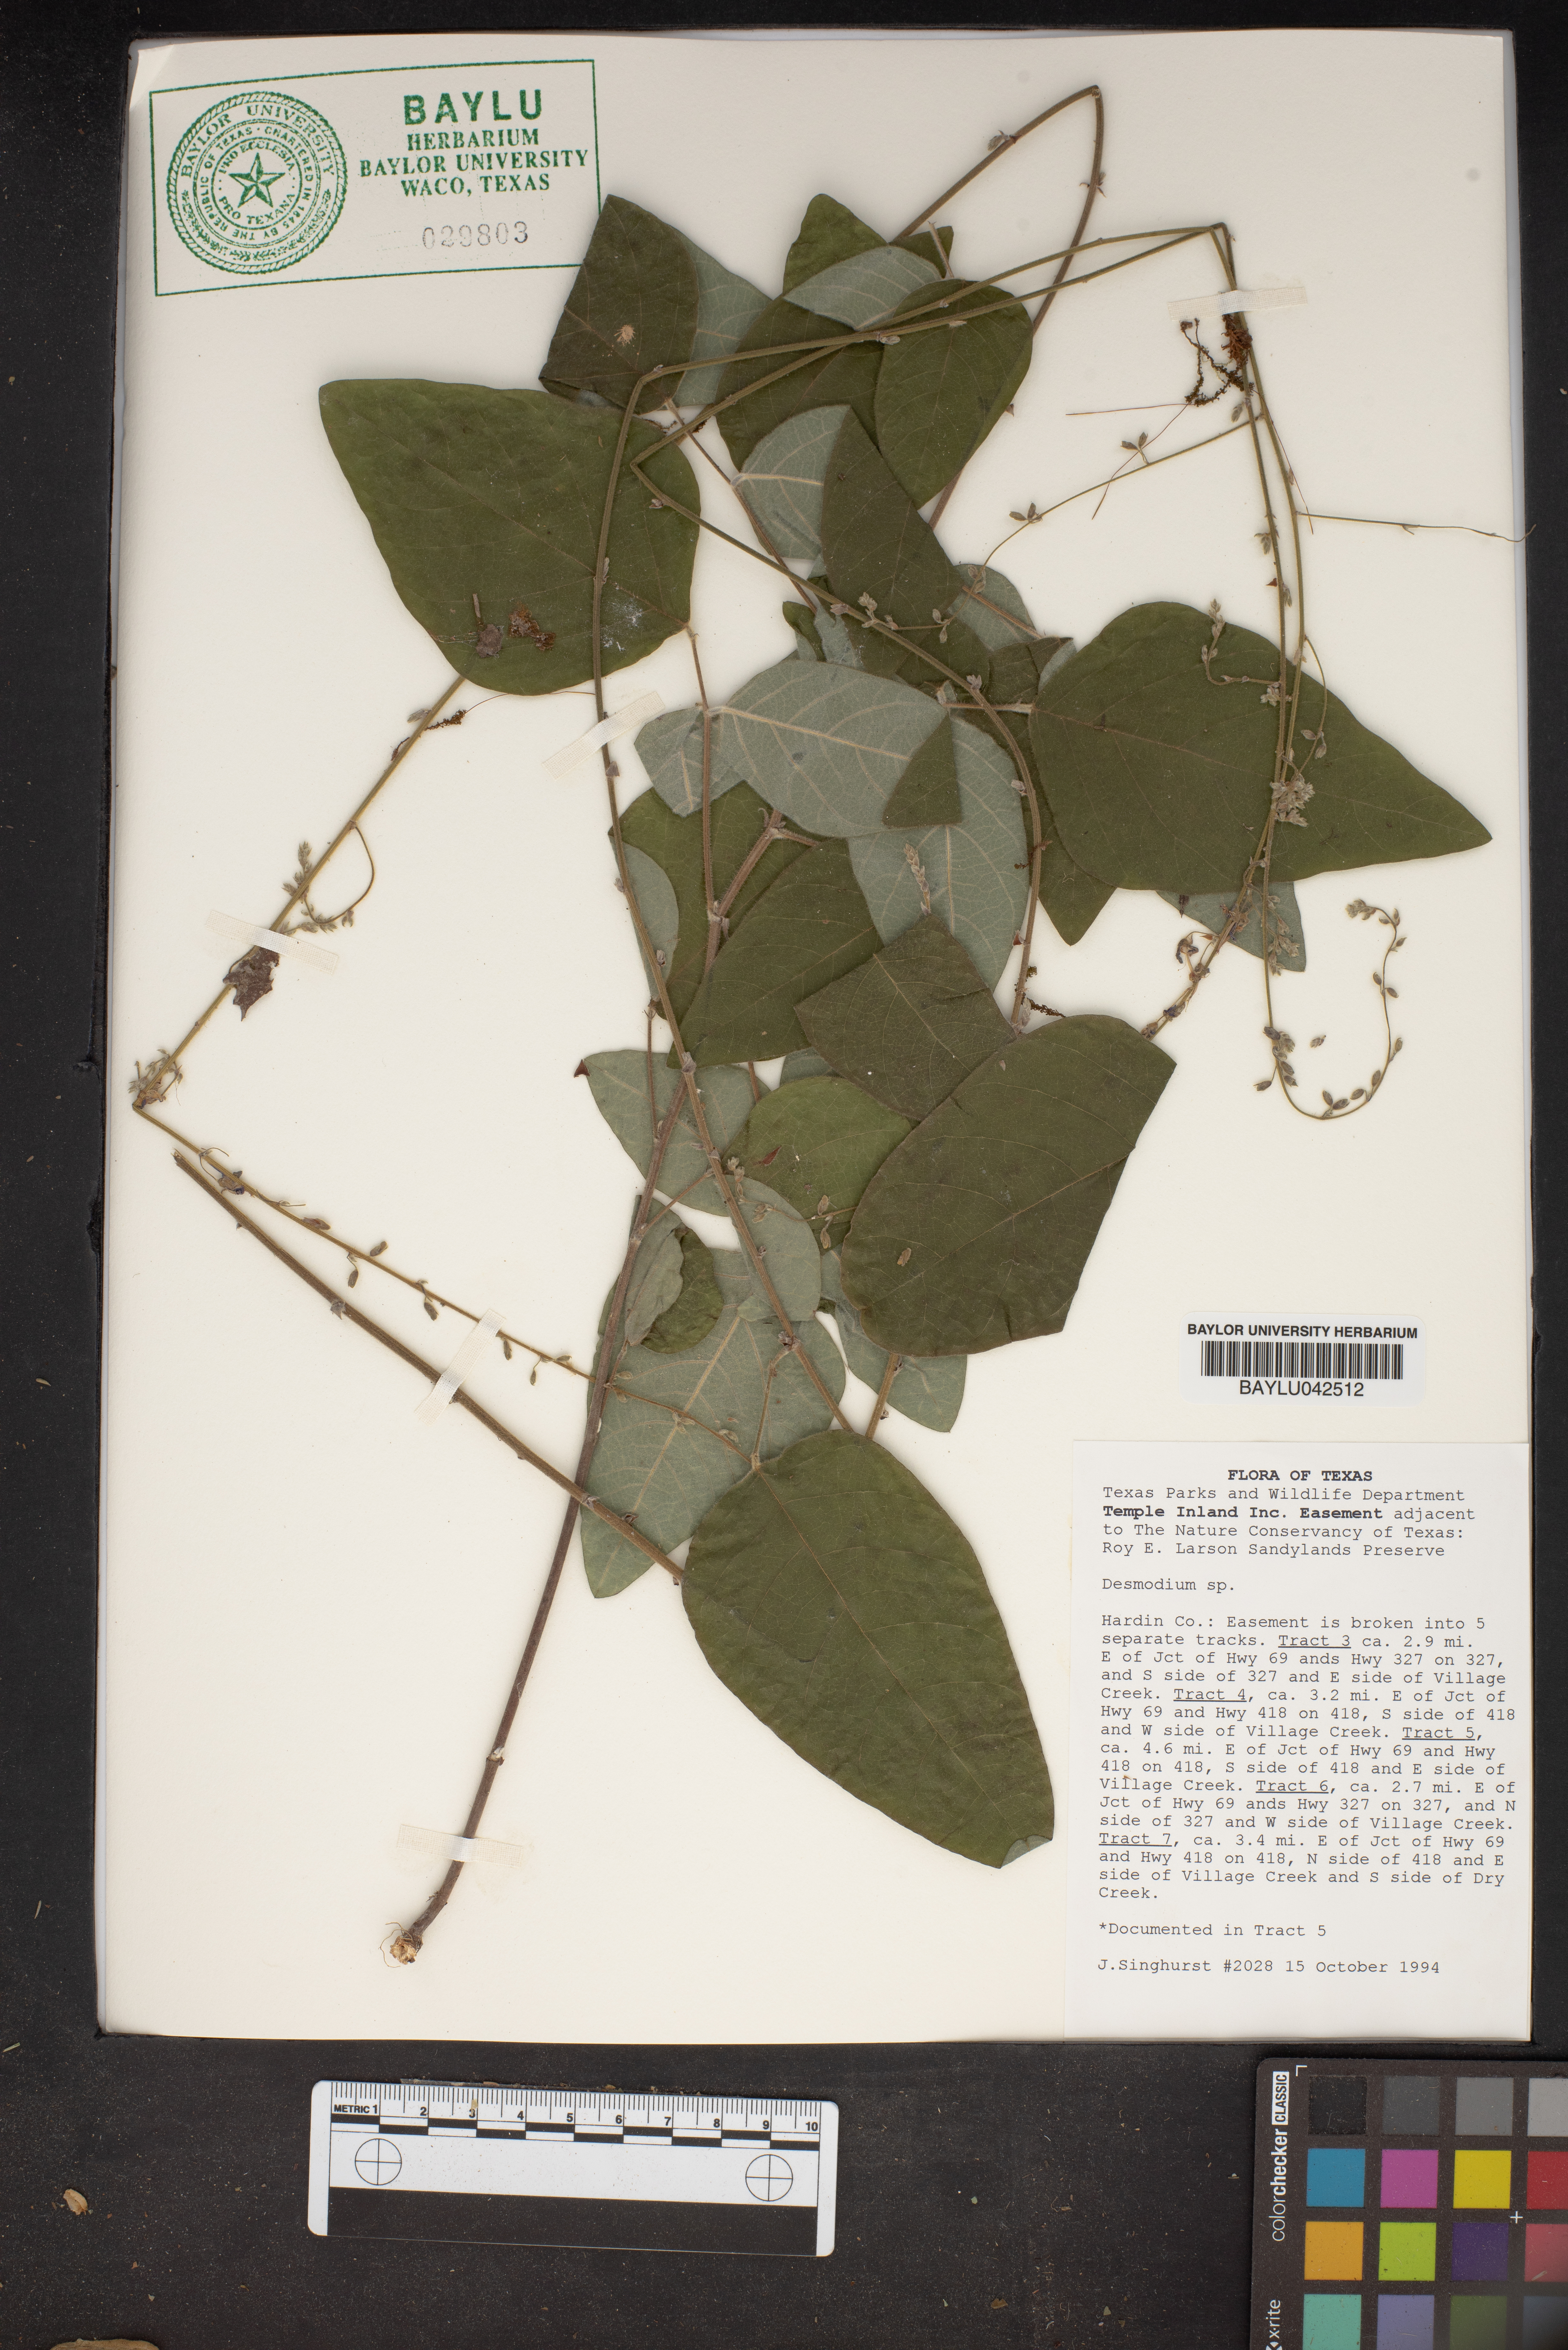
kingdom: Plantae
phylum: Tracheophyta
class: Magnoliopsida
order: Fabales
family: Fabaceae
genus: Desmodium
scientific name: Desmodium
